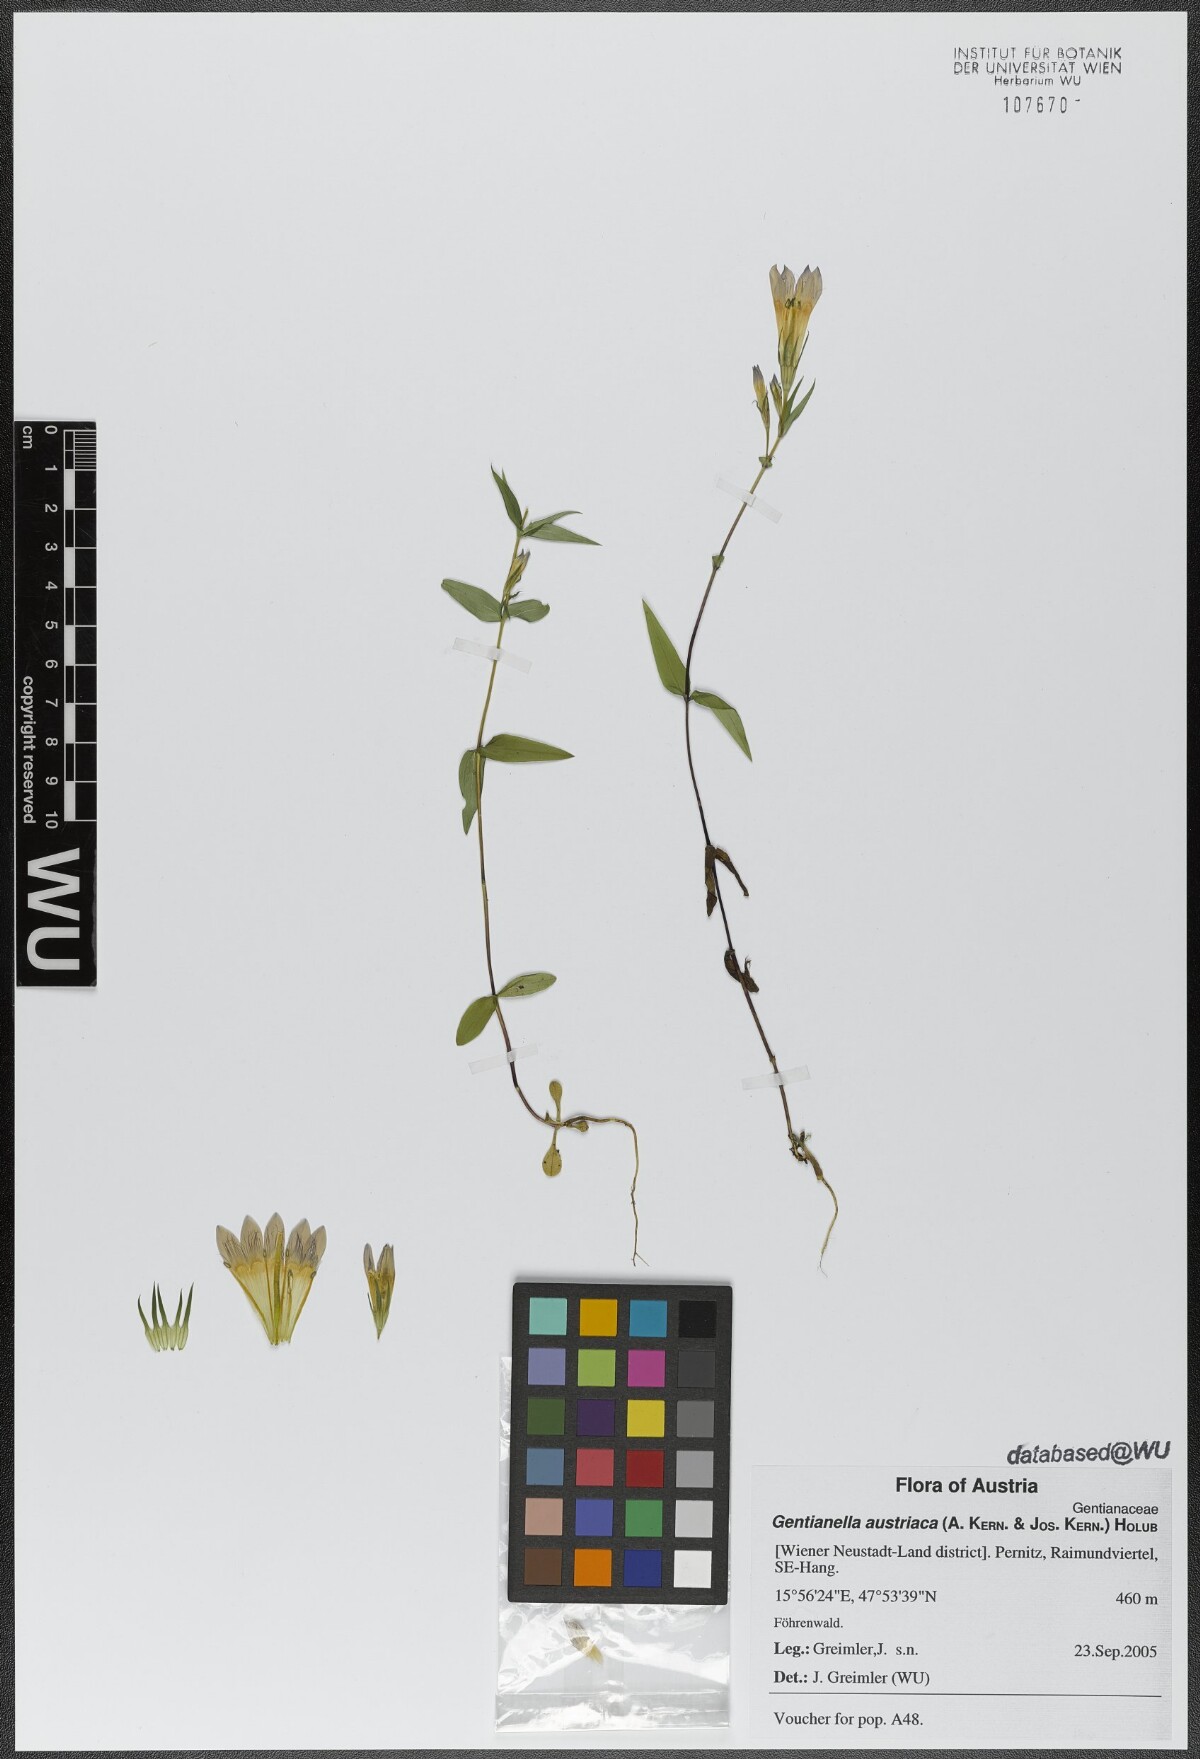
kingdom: Plantae
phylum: Tracheophyta
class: Magnoliopsida
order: Gentianales
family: Gentianaceae
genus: Gentianella
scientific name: Gentianella austriaca
